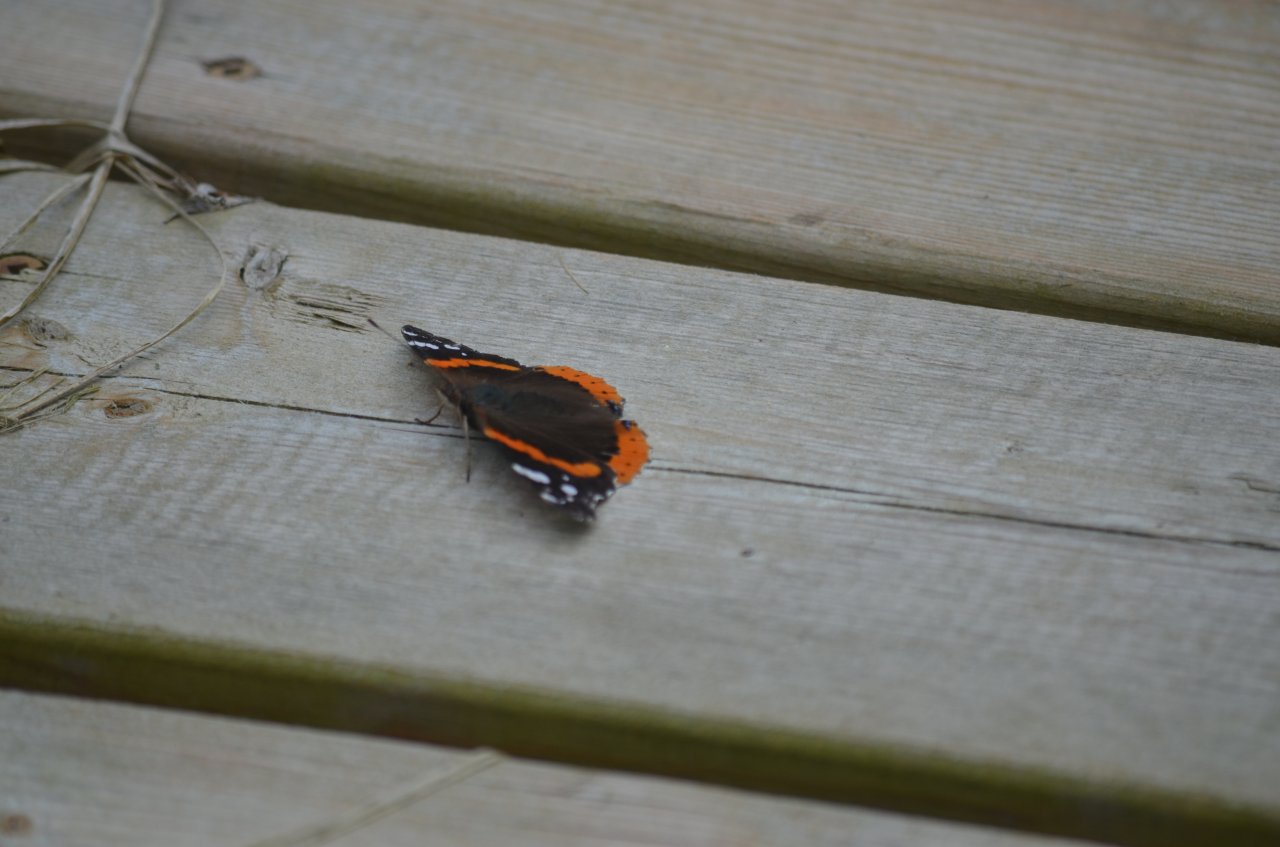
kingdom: Animalia
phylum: Arthropoda
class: Insecta
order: Lepidoptera
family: Nymphalidae
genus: Vanessa
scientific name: Vanessa atalanta
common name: Red Admiral
